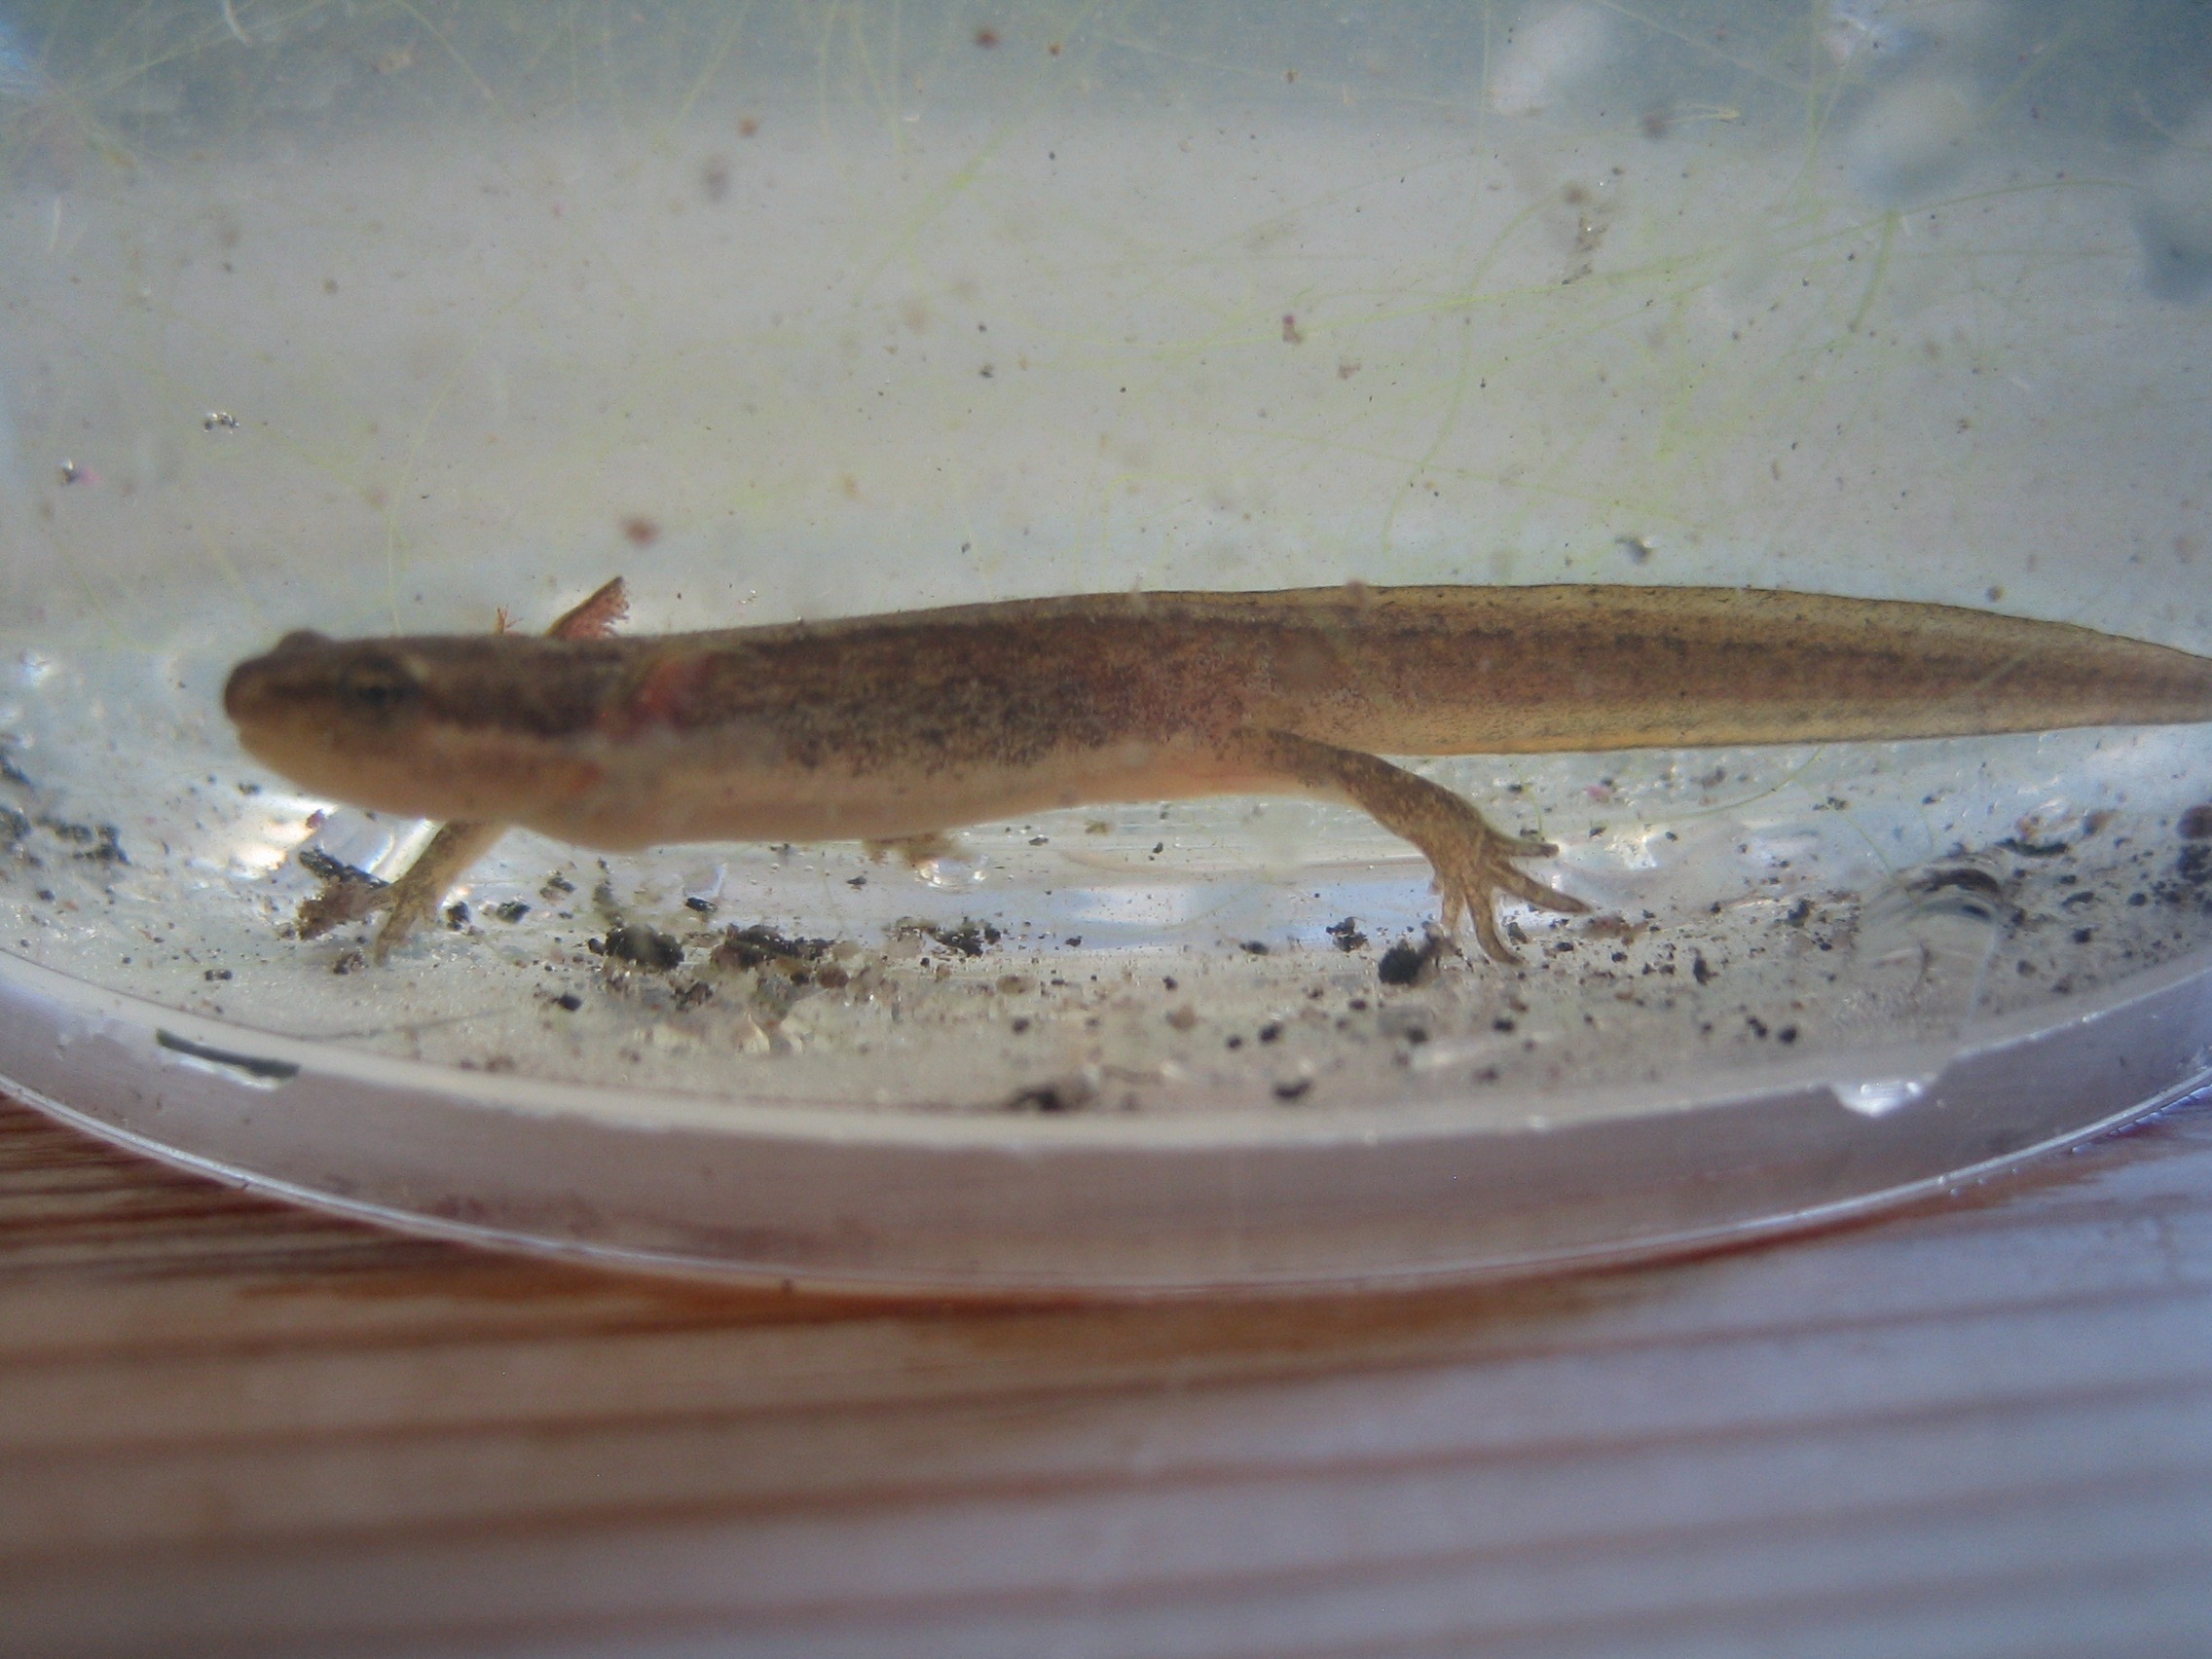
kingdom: Animalia
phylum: Chordata
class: Amphibia
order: Caudata
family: Salamandridae
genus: Lissotriton
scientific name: Lissotriton vulgaris
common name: Lille vandsalamander
